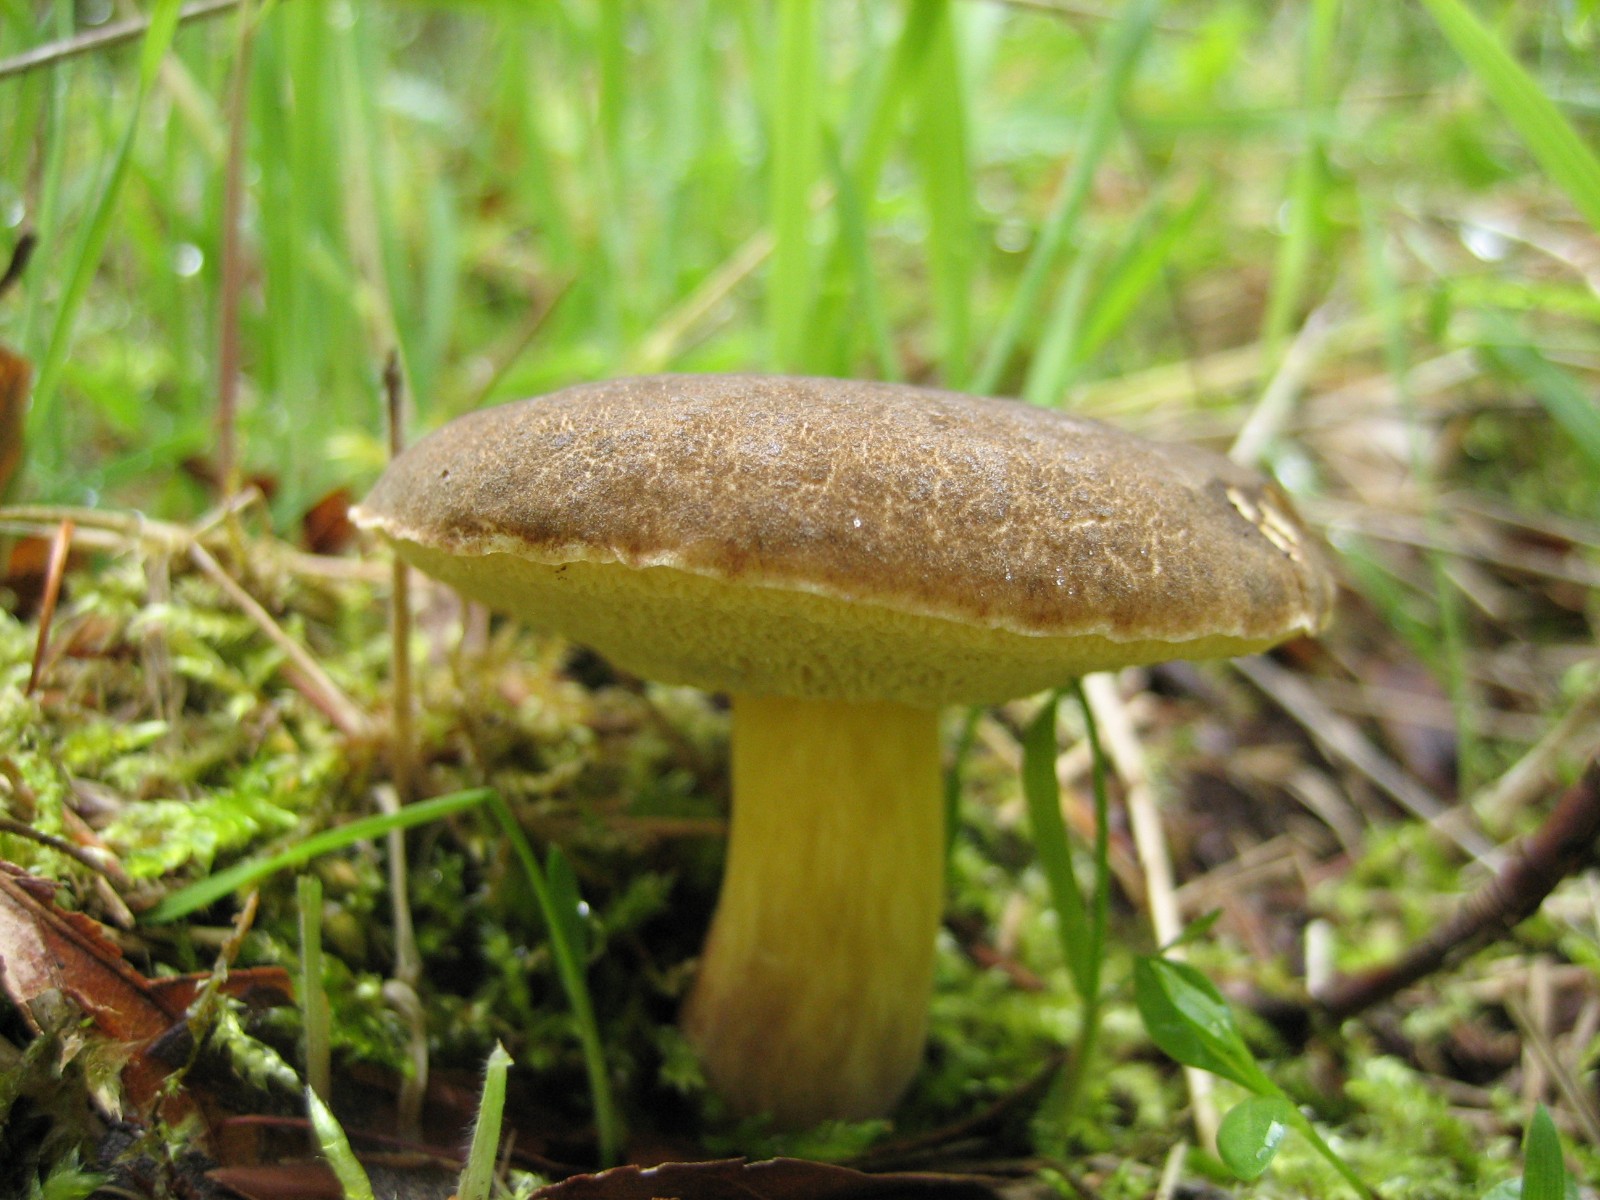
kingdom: Fungi
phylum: Basidiomycota
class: Agaricomycetes
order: Boletales
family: Boletaceae
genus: Xerocomellus
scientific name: Xerocomellus porosporus
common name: hvidsprukken rørhat
